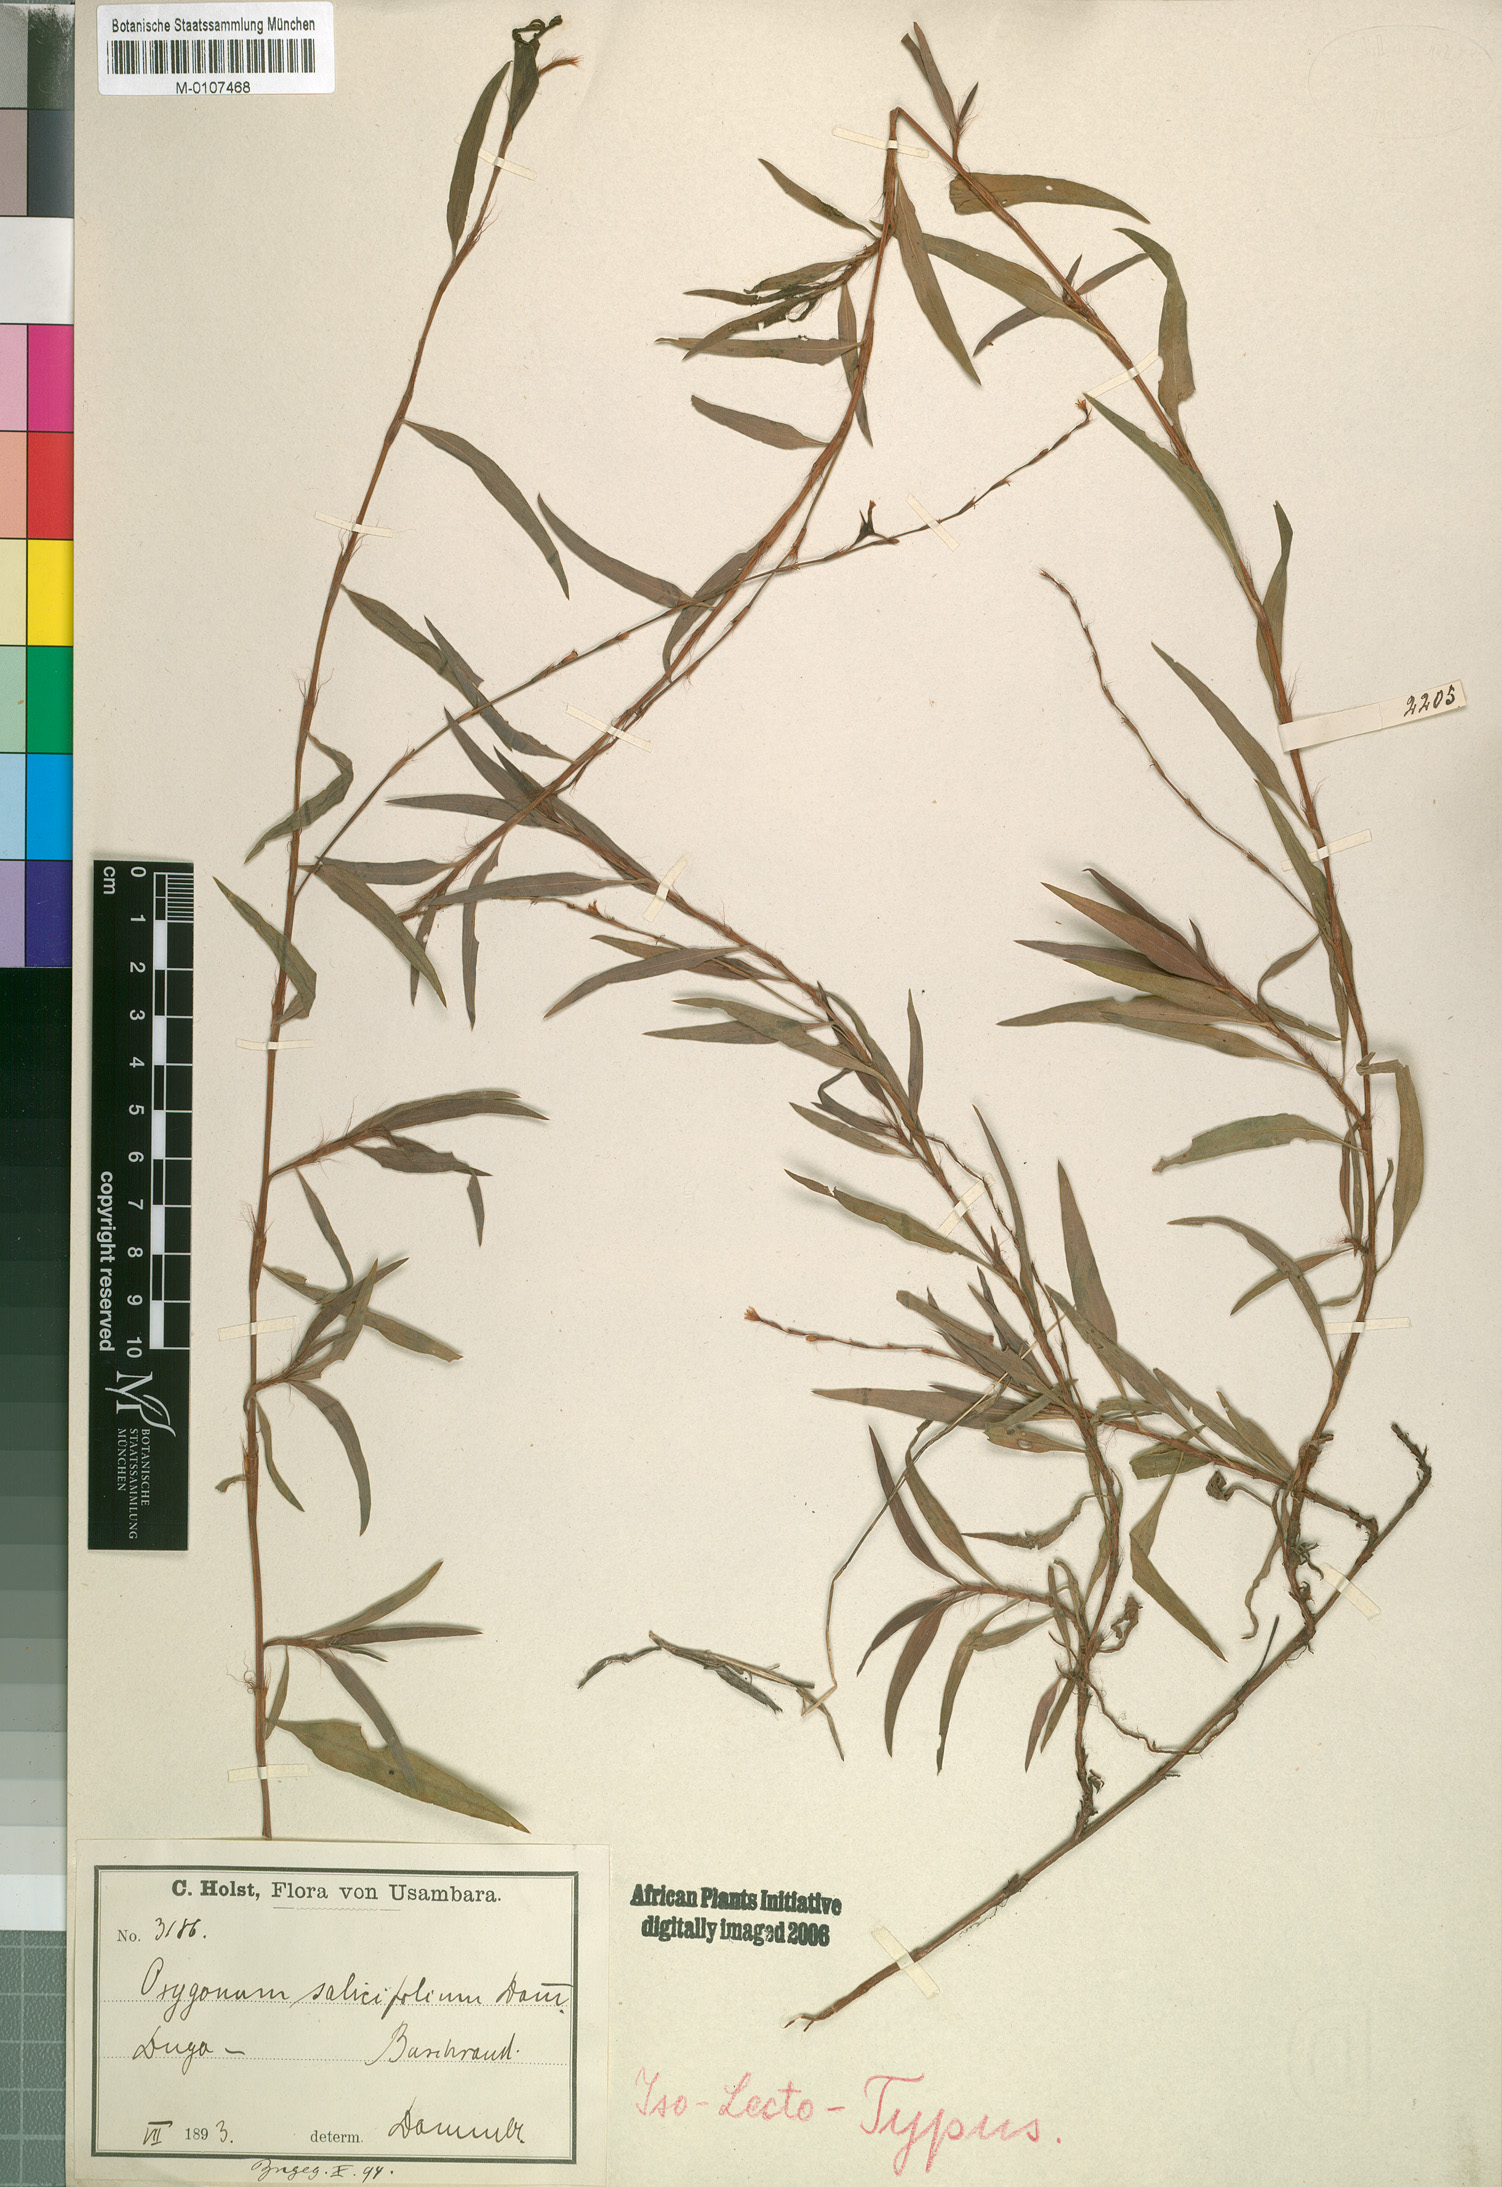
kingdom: Plantae
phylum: Tracheophyta
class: Magnoliopsida
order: Caryophyllales
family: Polygonaceae
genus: Oxygonum
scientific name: Oxygonum salicifolium
